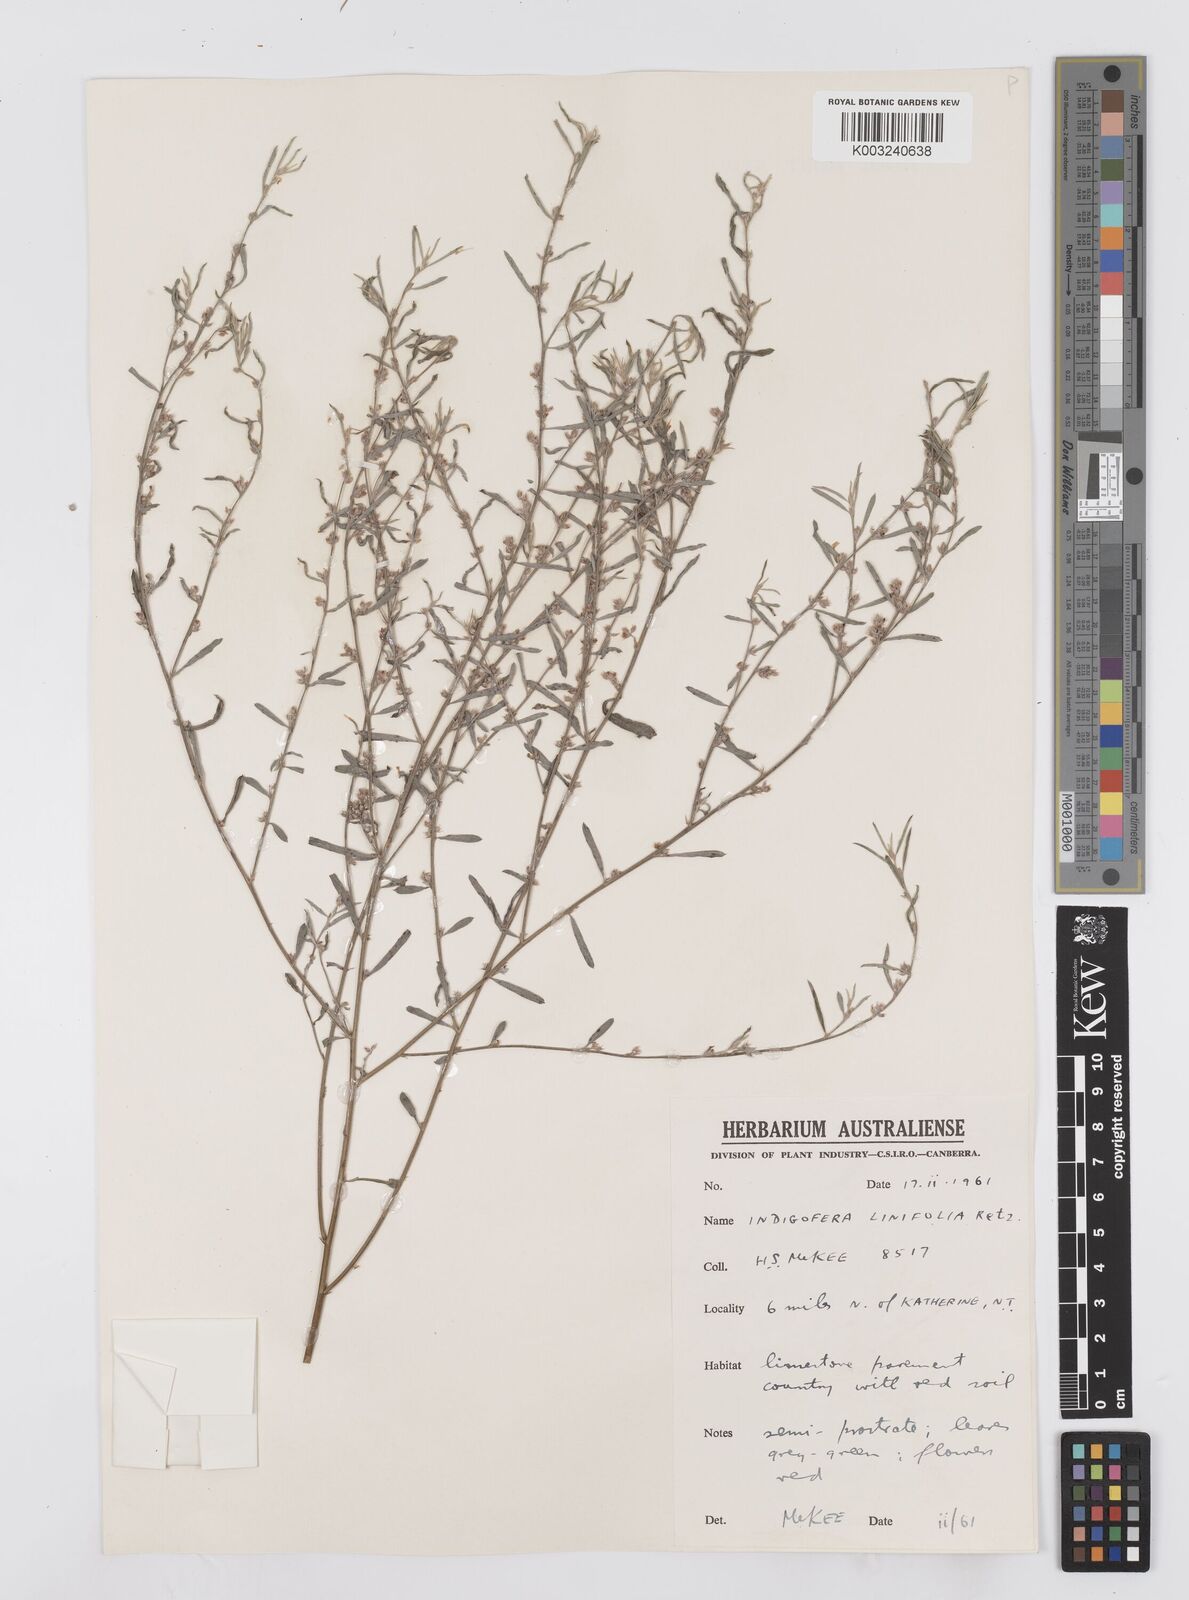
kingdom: Plantae
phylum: Tracheophyta
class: Magnoliopsida
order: Fabales
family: Fabaceae
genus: Indigofera
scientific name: Indigofera linifolia
